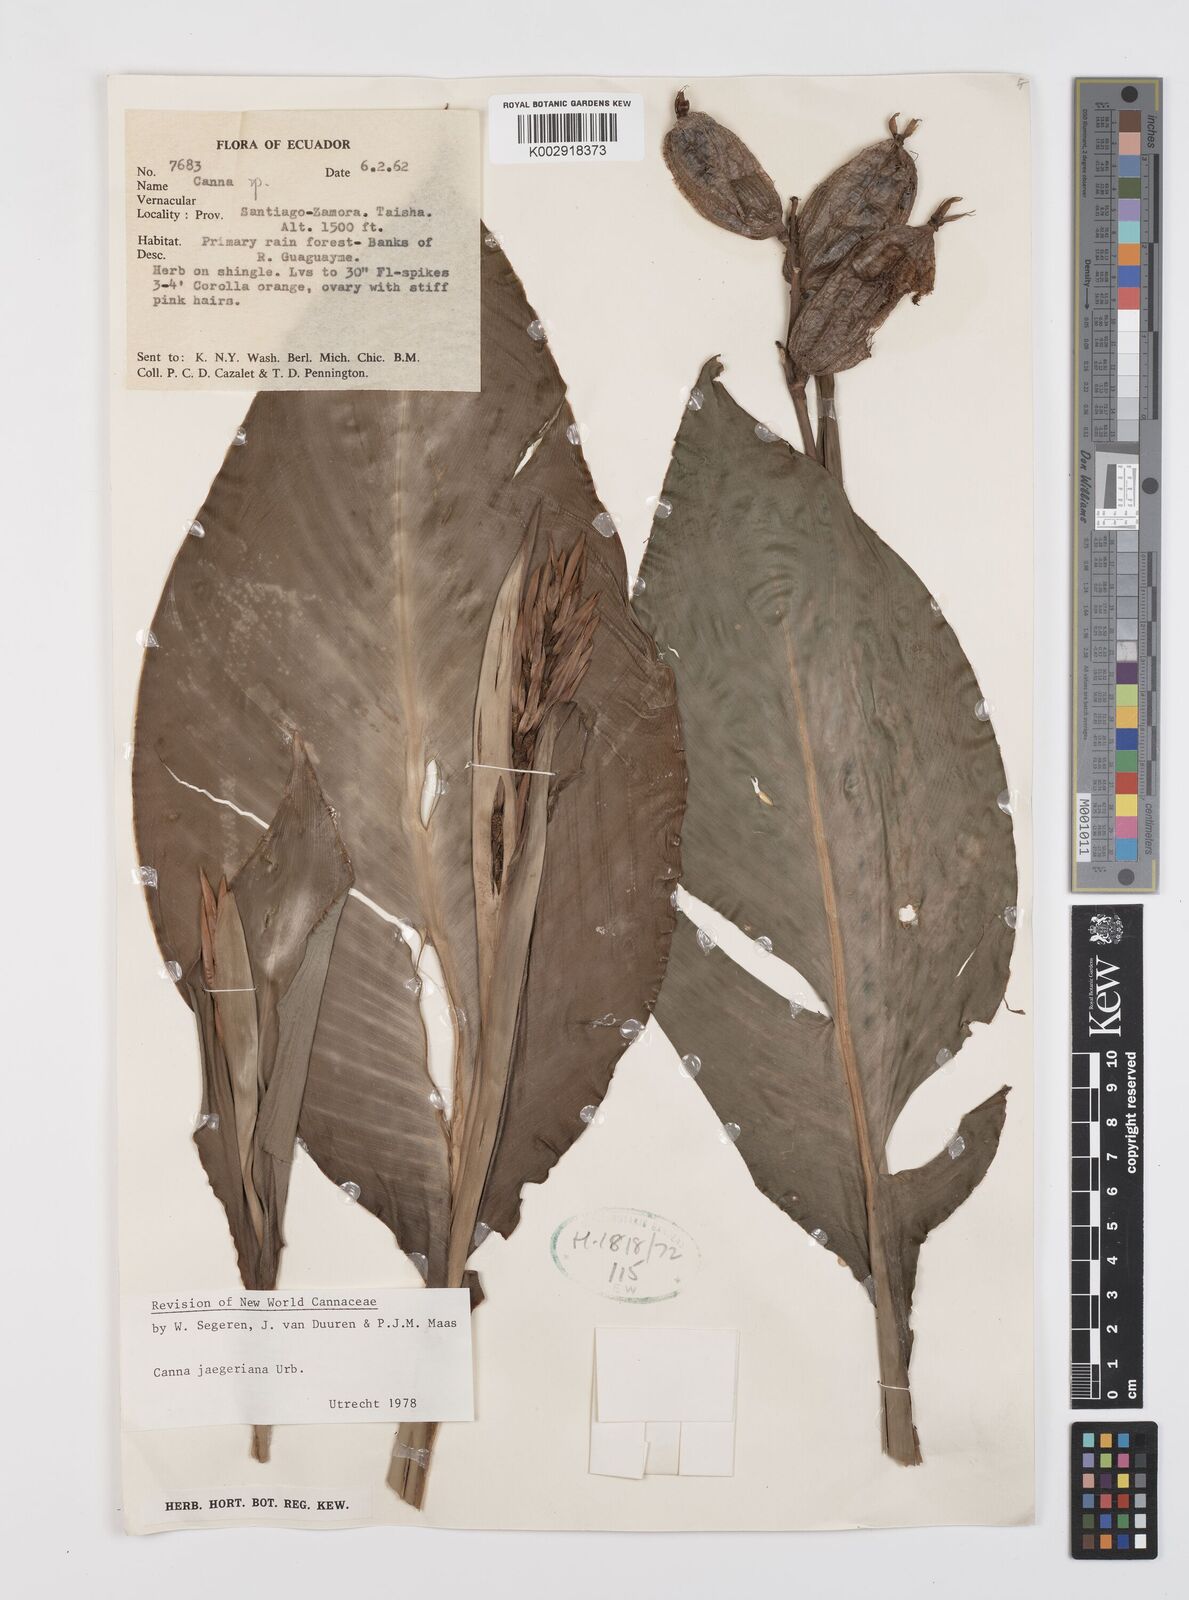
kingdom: Plantae
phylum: Tracheophyta
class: Liliopsida
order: Zingiberales
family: Cannaceae
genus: Canna
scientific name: Canna jaegeriana
